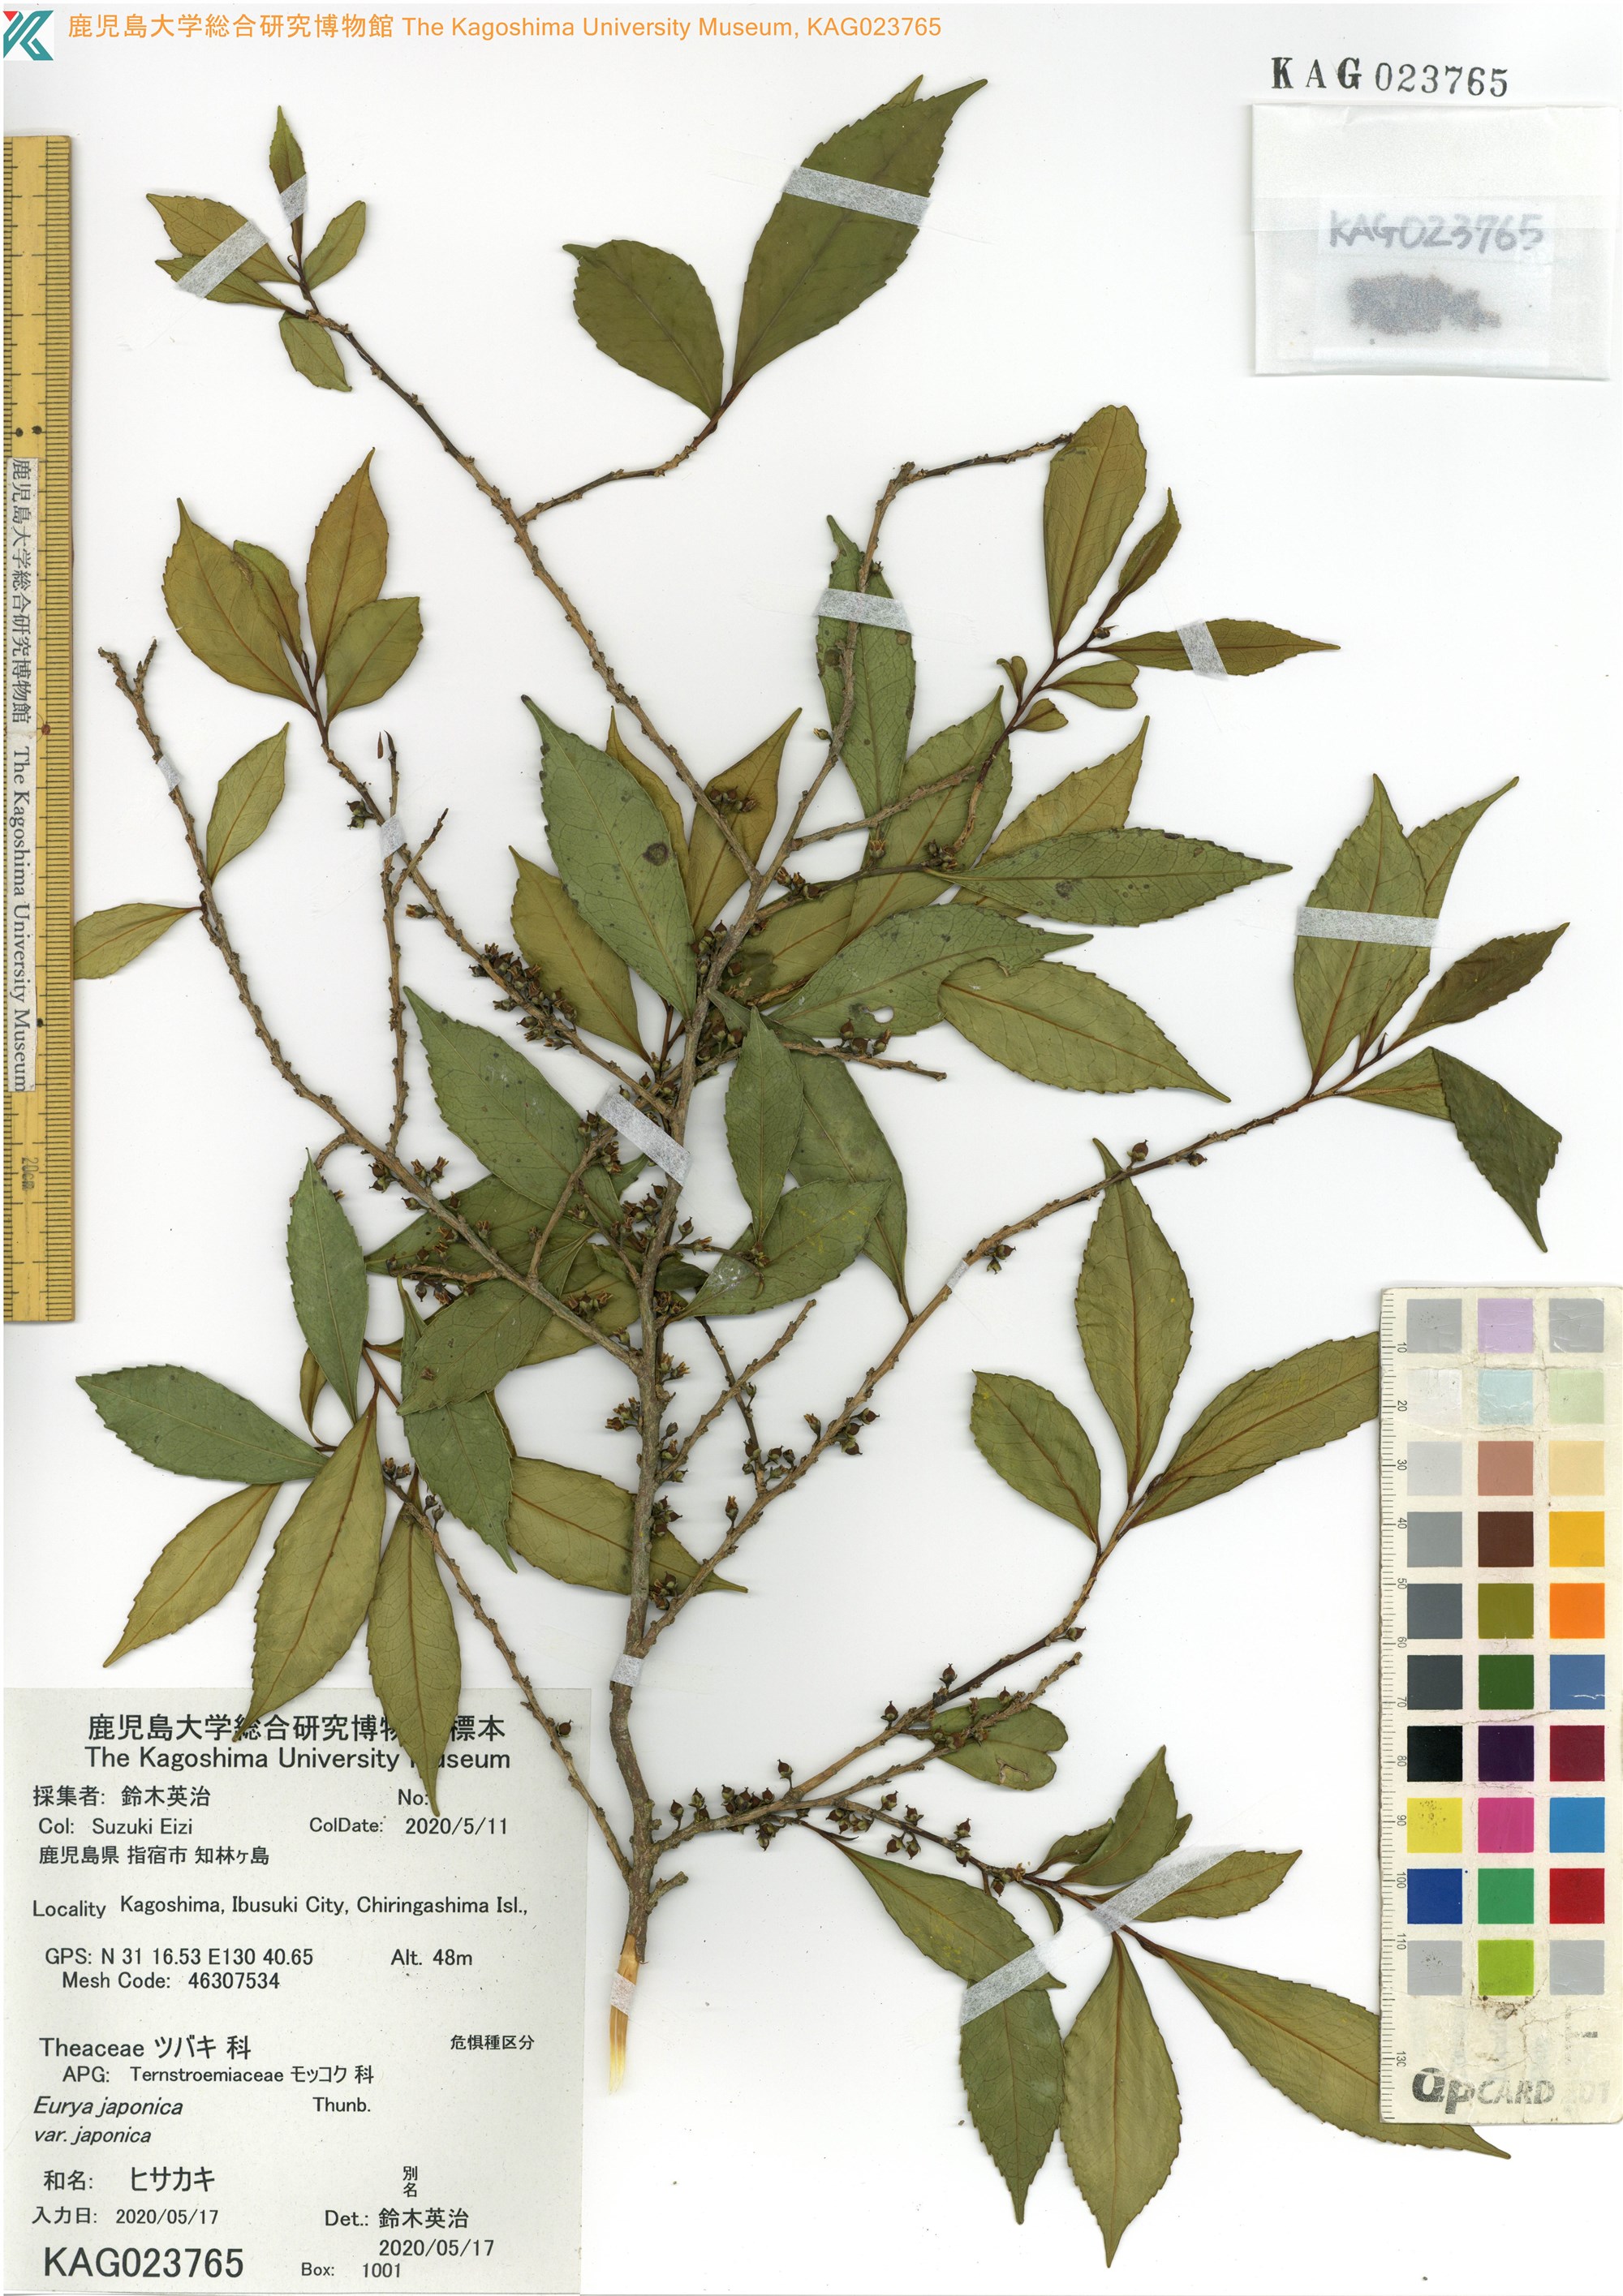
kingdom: Plantae
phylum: Tracheophyta
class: Magnoliopsida
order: Ericales
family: Pentaphylacaceae
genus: Eurya
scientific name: Eurya japonica
